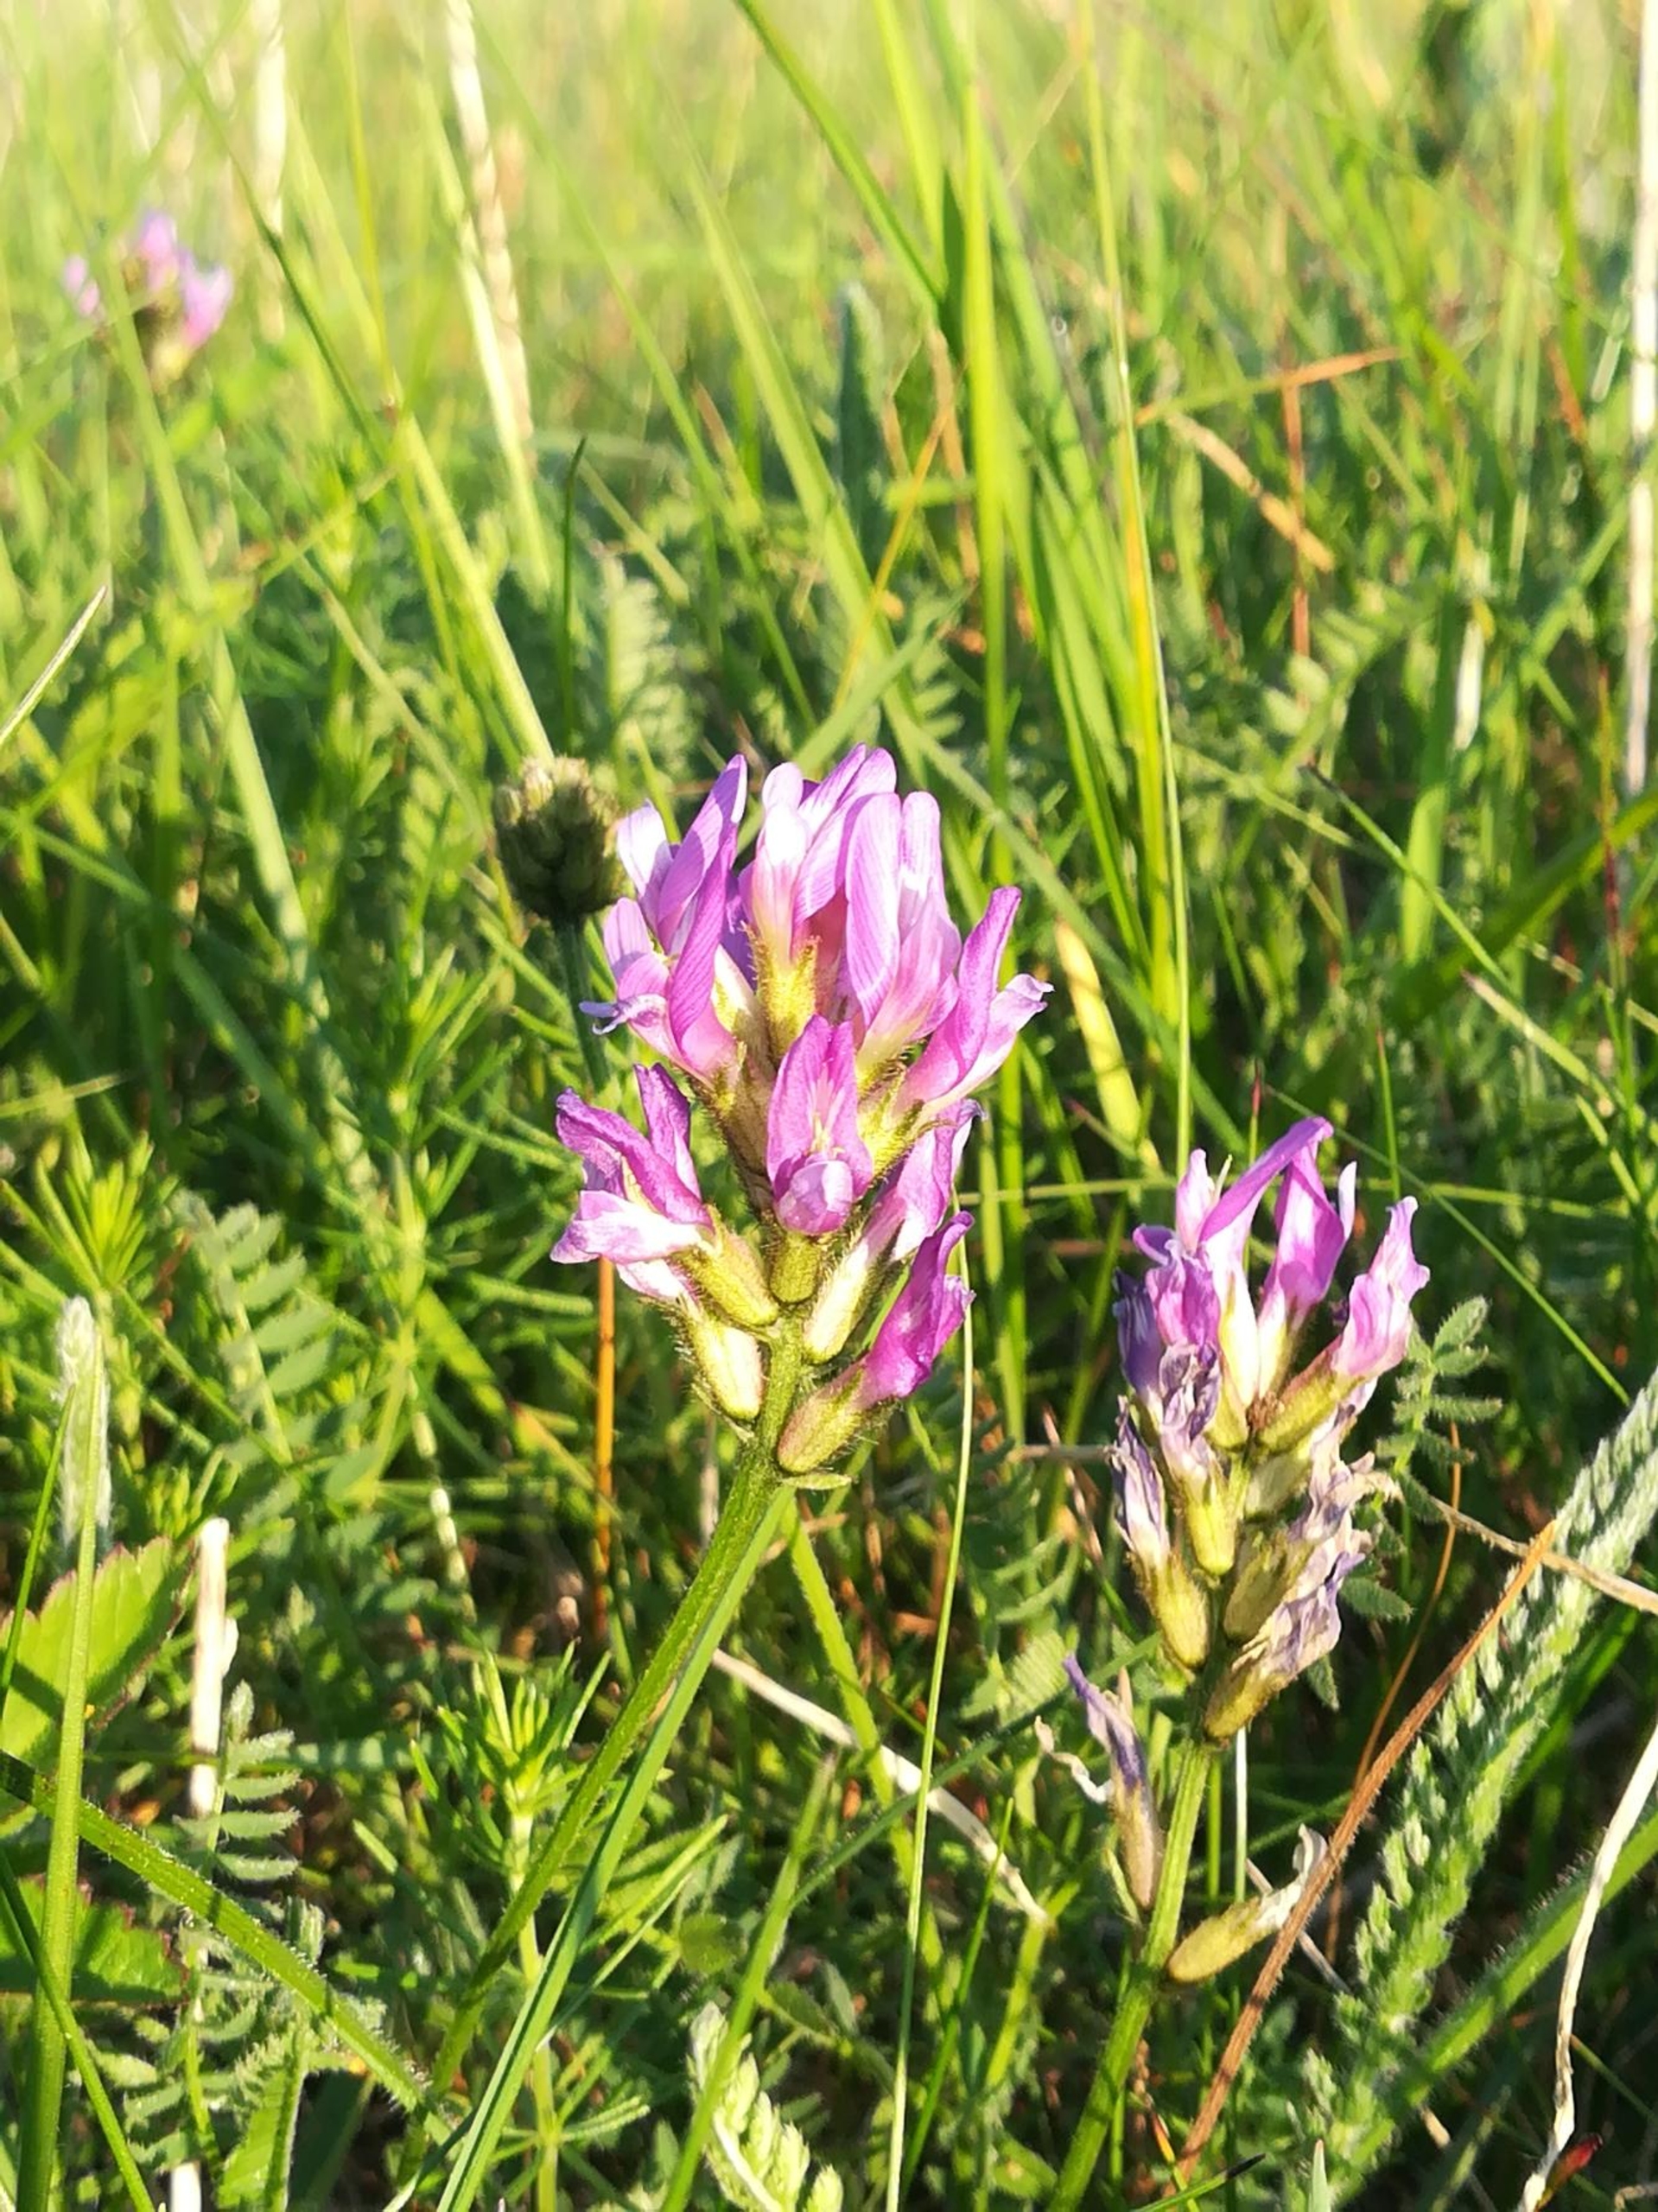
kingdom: Plantae
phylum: Tracheophyta
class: Magnoliopsida
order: Fabales
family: Fabaceae
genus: Astragalus
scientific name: Astragalus danicus
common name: Dansk astragel
